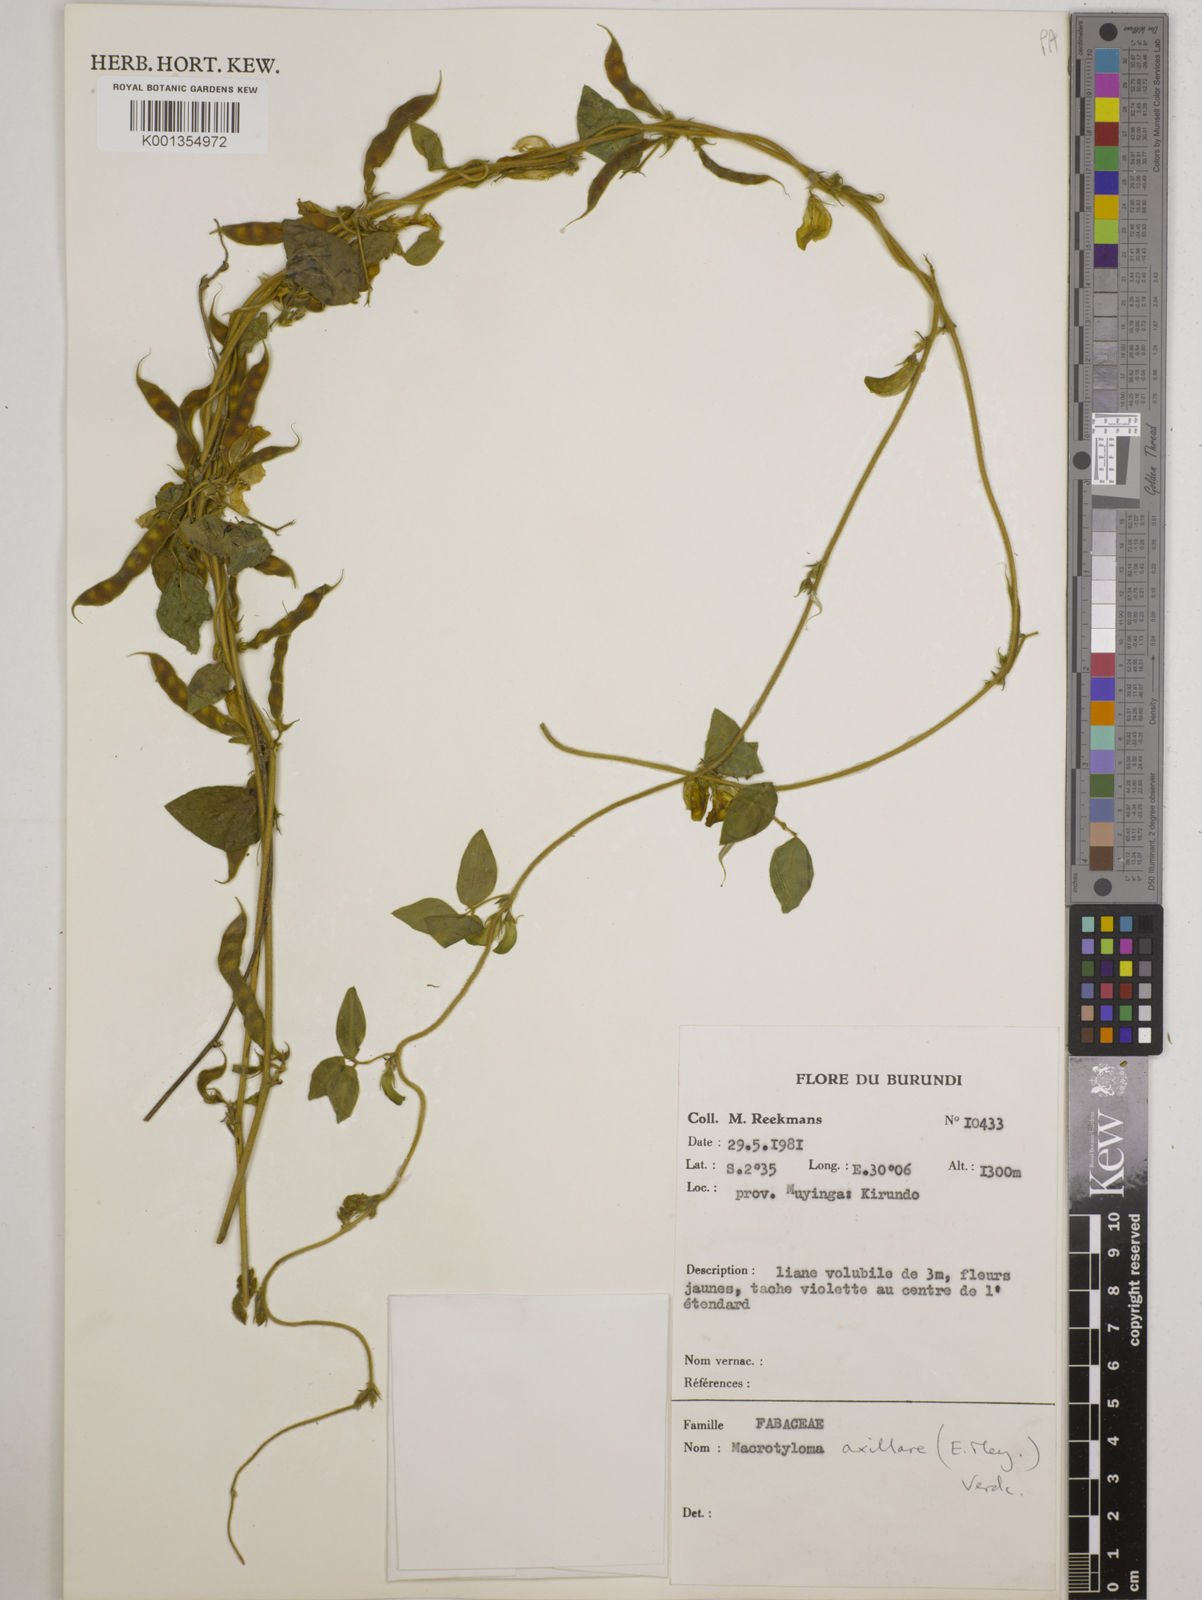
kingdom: Plantae
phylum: Tracheophyta
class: Magnoliopsida
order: Fabales
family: Fabaceae
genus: Macrotyloma
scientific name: Macrotyloma axillare
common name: Perennial horsegram
